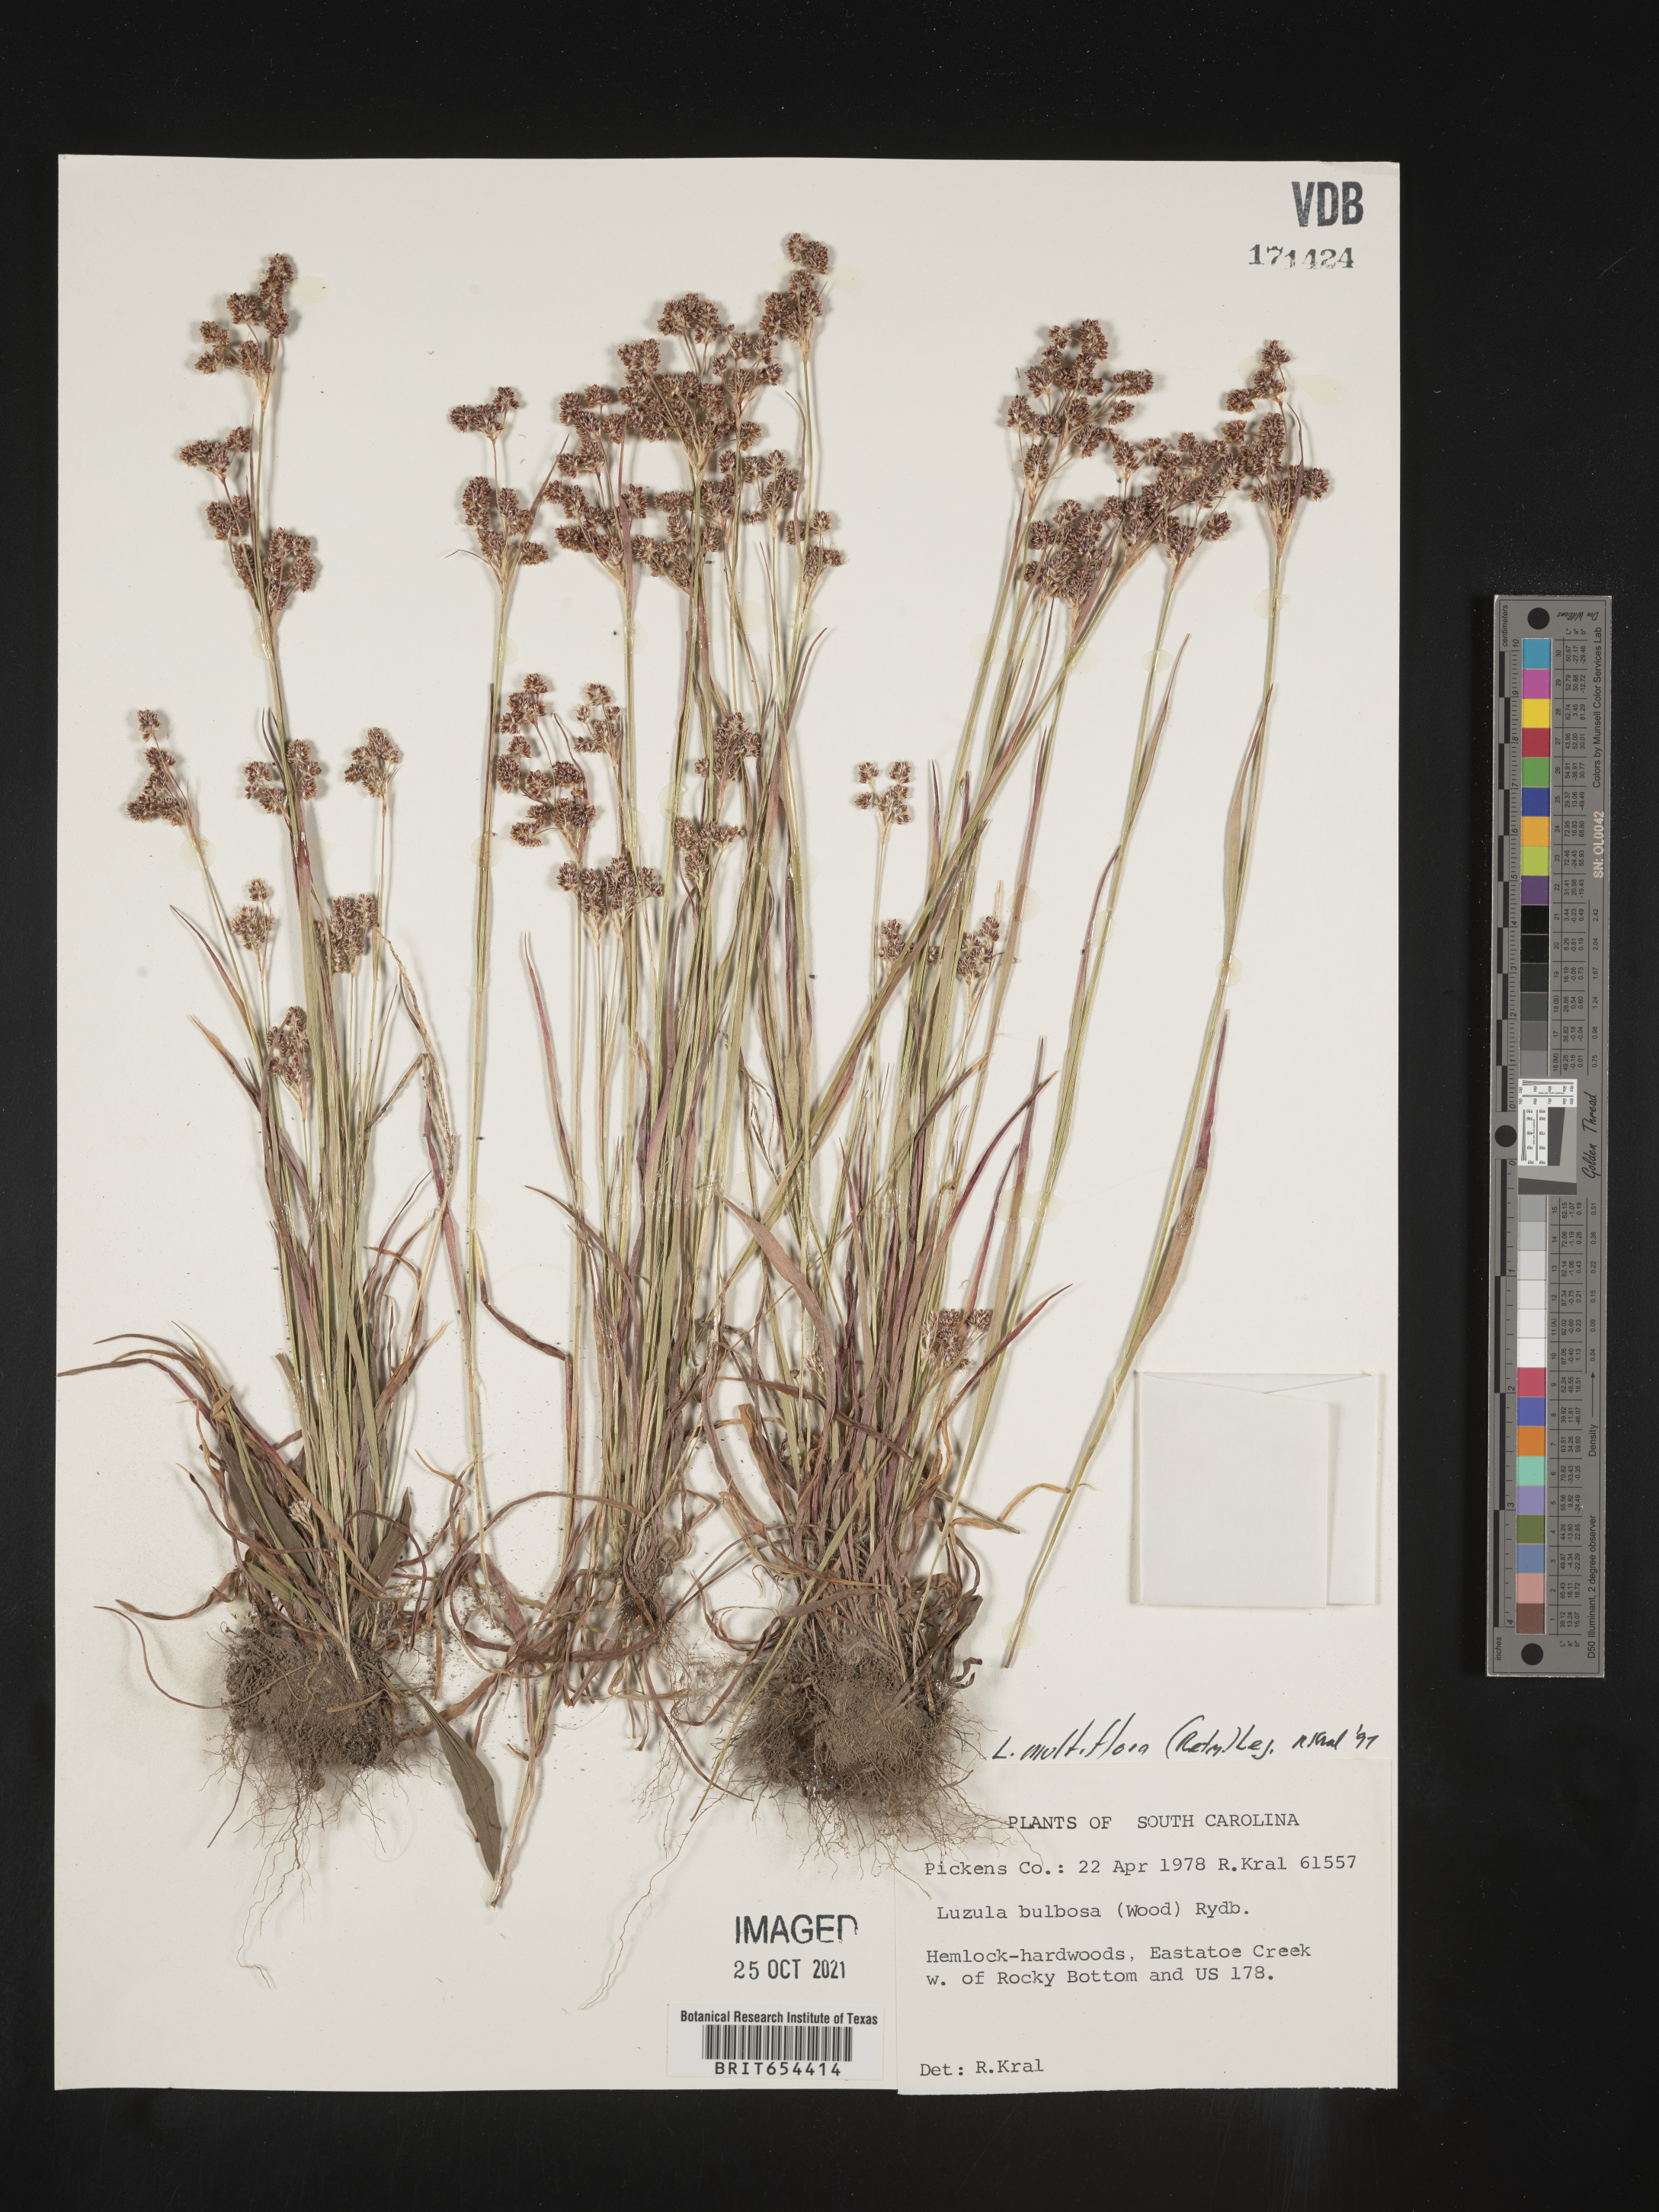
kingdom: Plantae
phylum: Tracheophyta
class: Liliopsida
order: Poales
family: Juncaceae
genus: Luzula
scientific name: Luzula multiflora
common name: Heath wood-rush
